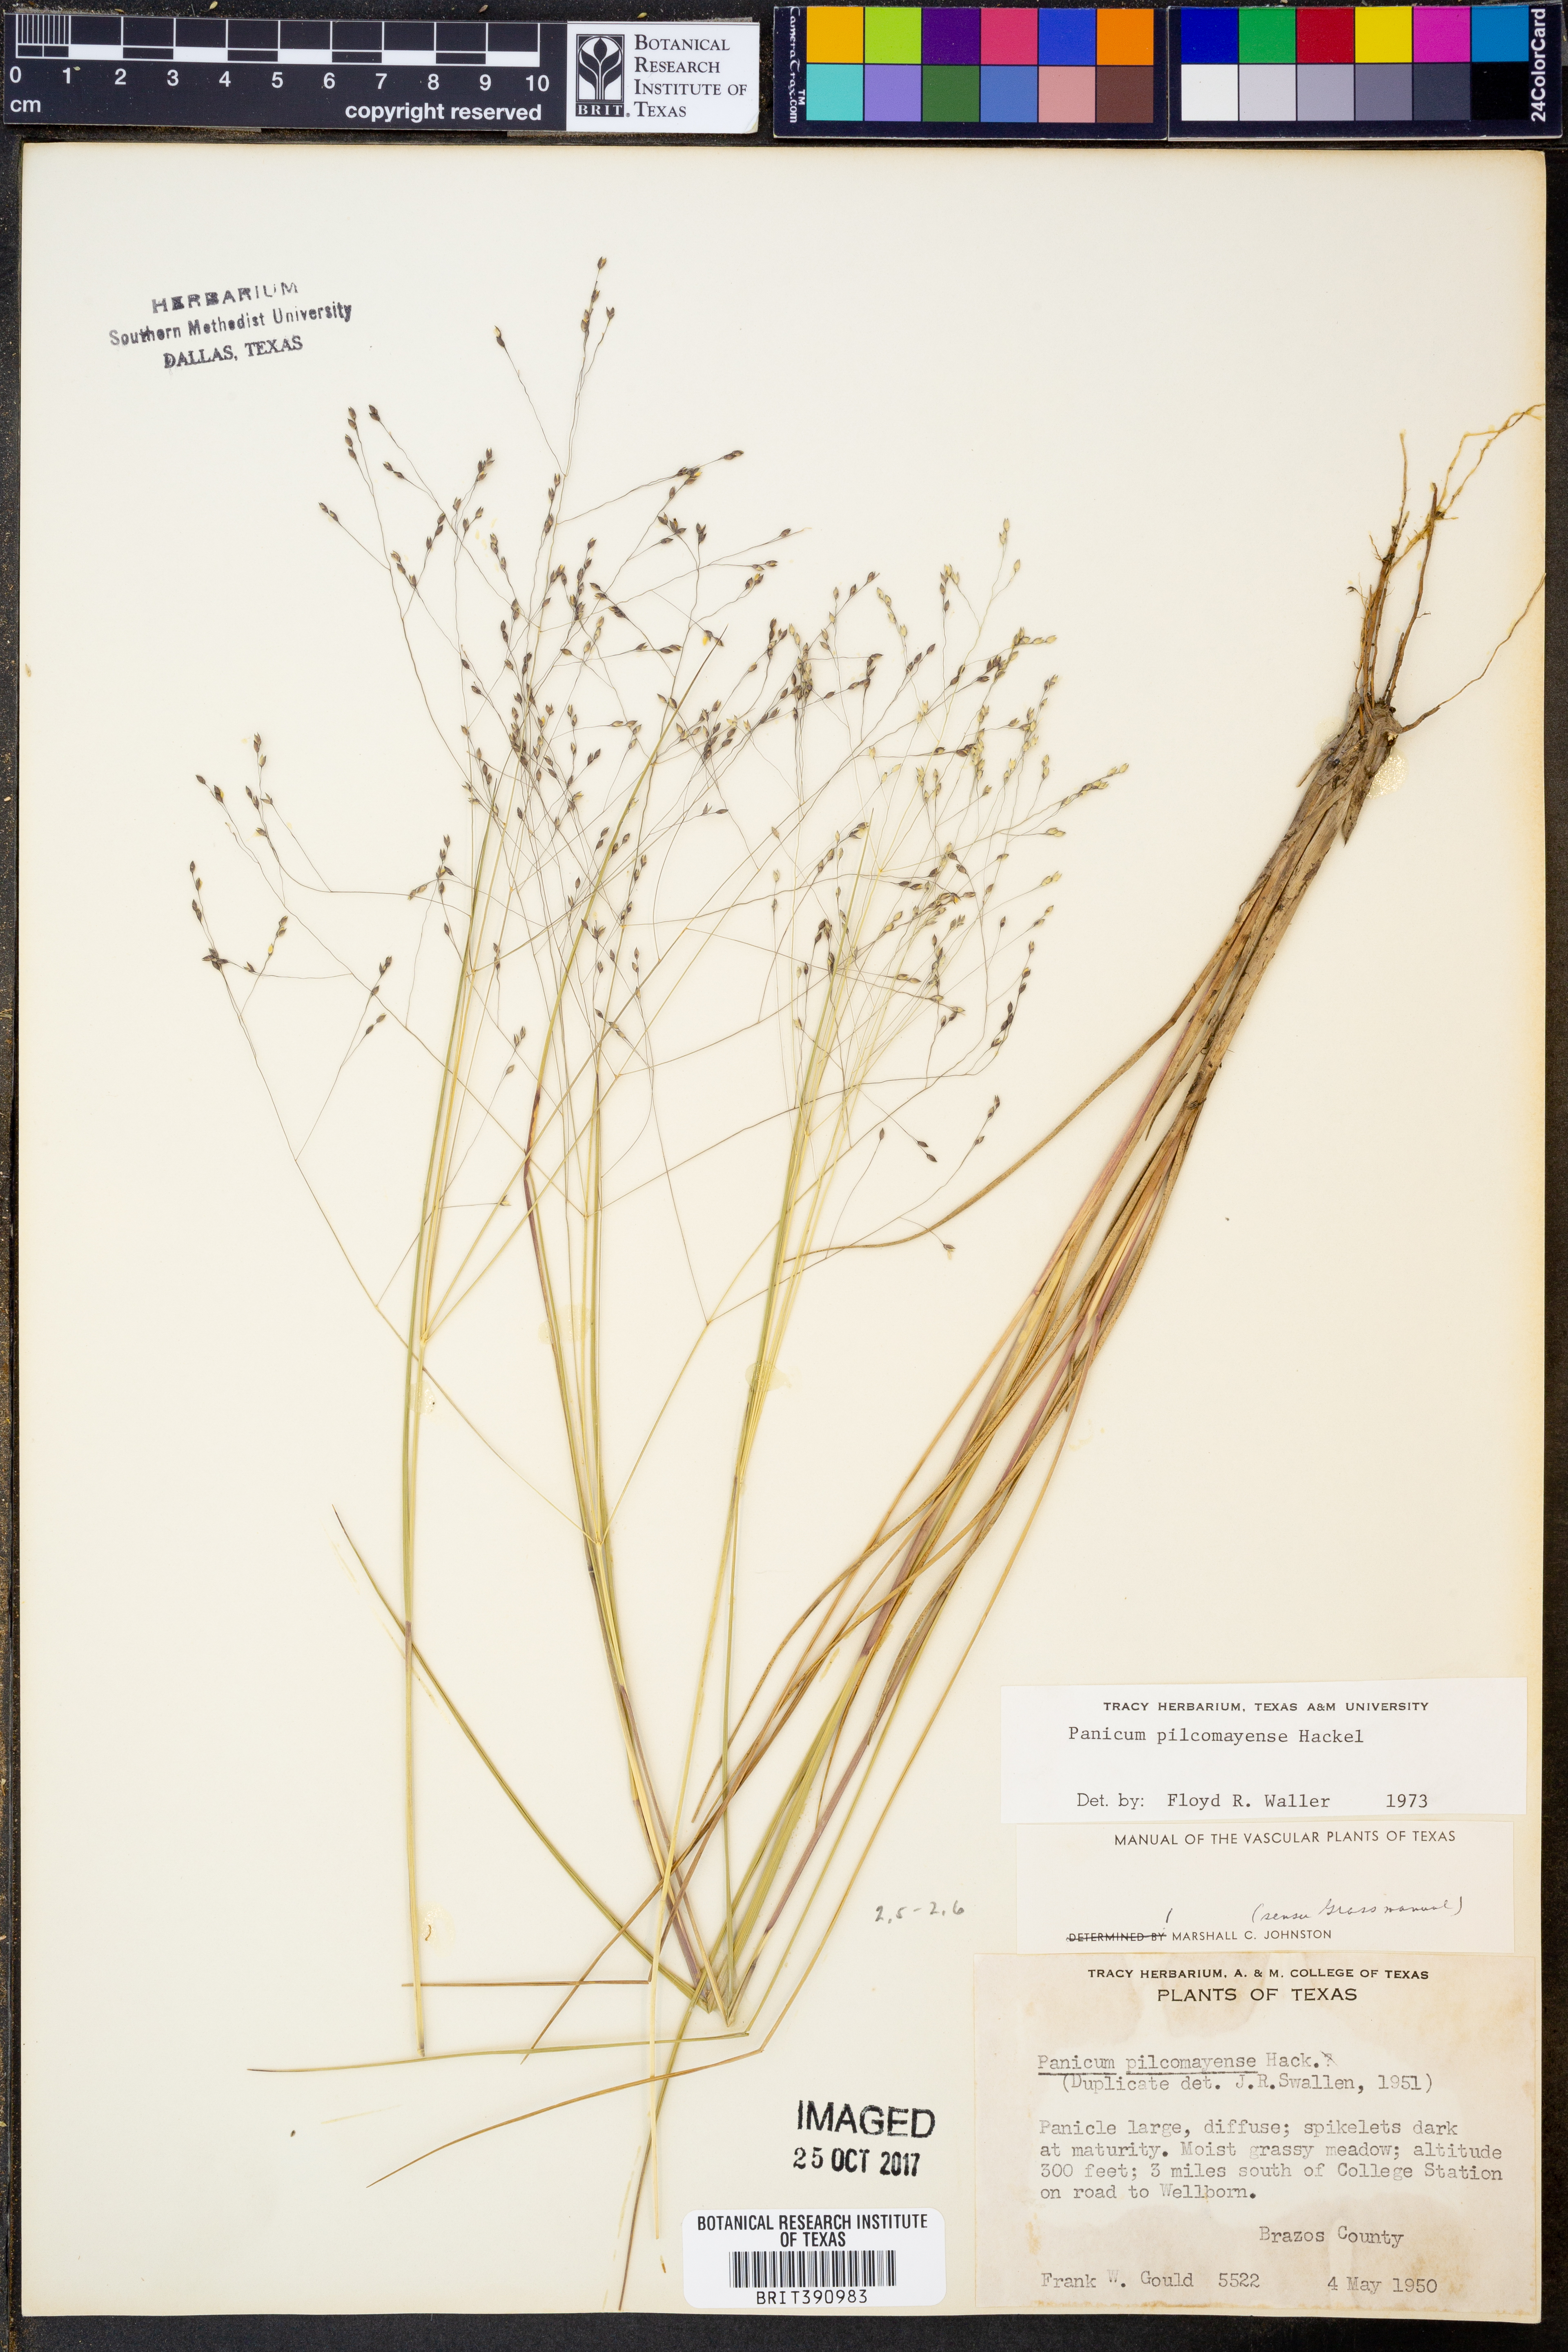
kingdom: Plantae
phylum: Tracheophyta
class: Liliopsida
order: Poales
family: Poaceae
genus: Panicum
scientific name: Panicum bergii
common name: Berg's panicgrass
